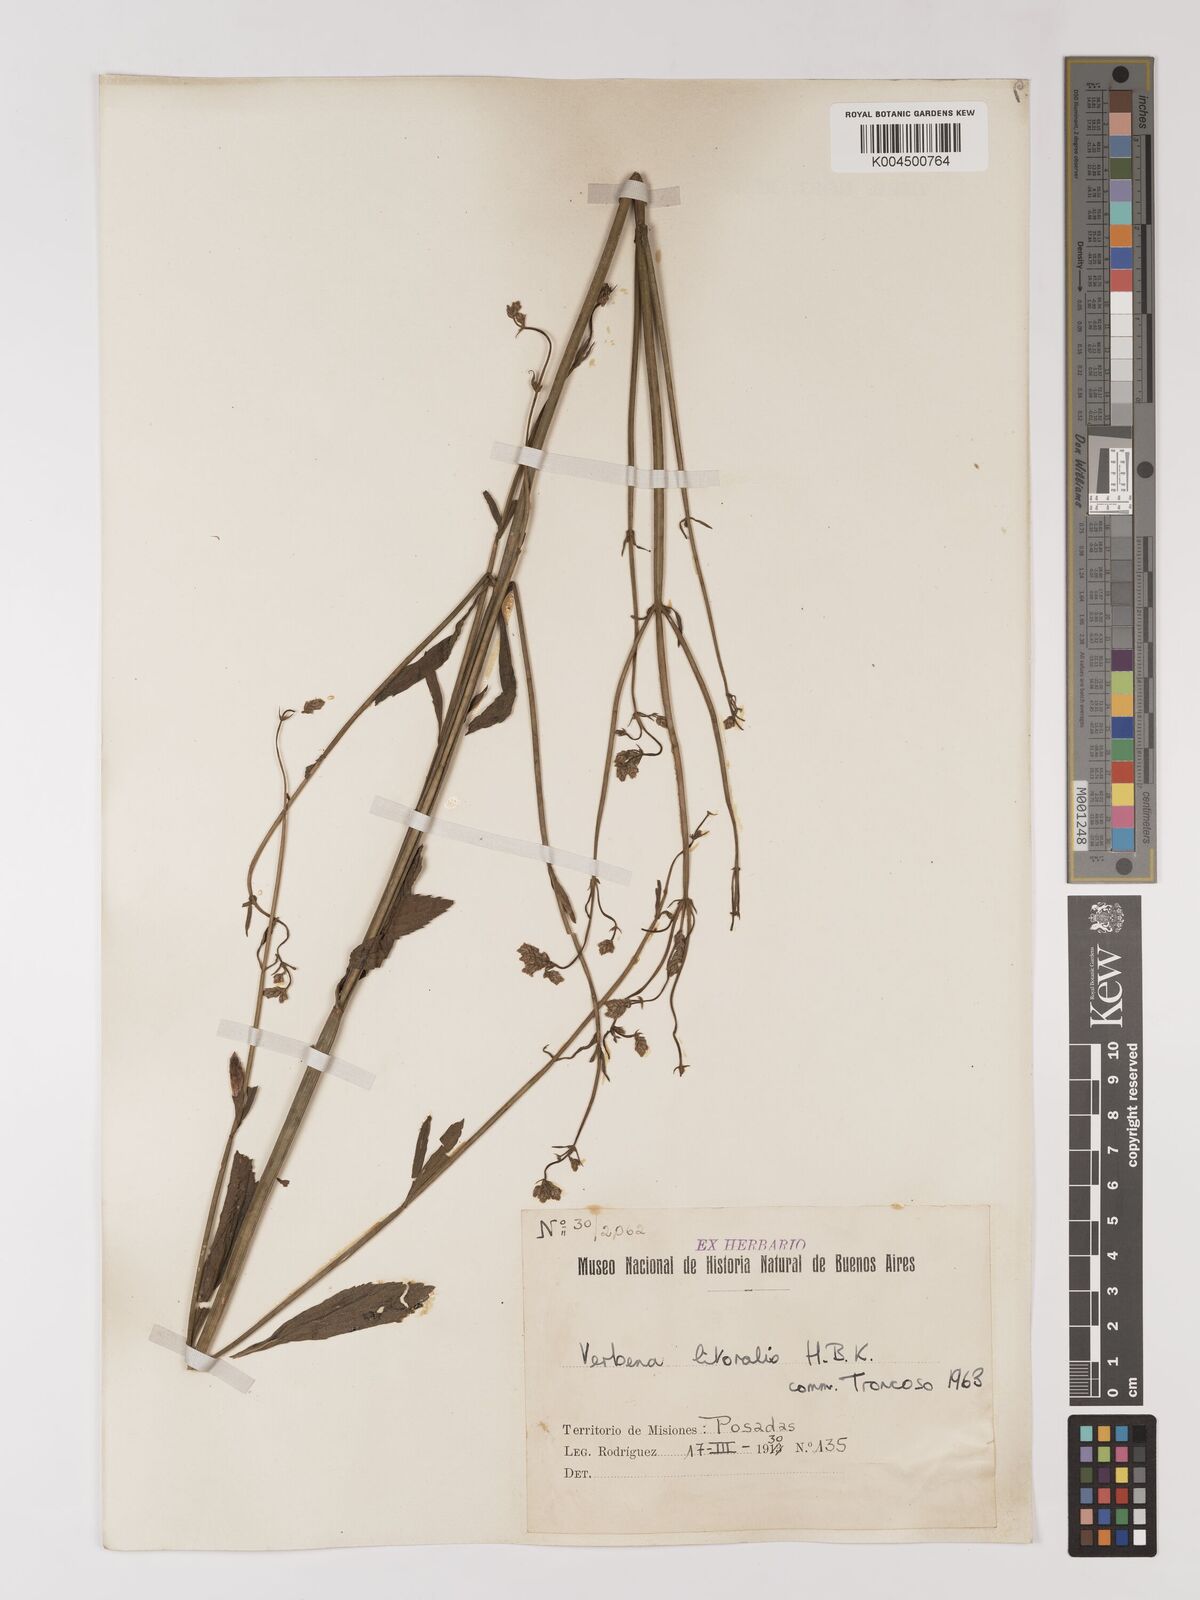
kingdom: Plantae
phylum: Tracheophyta
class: Magnoliopsida
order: Lamiales
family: Verbenaceae
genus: Verbena
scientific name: Verbena litoralis
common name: Seashore vervain
